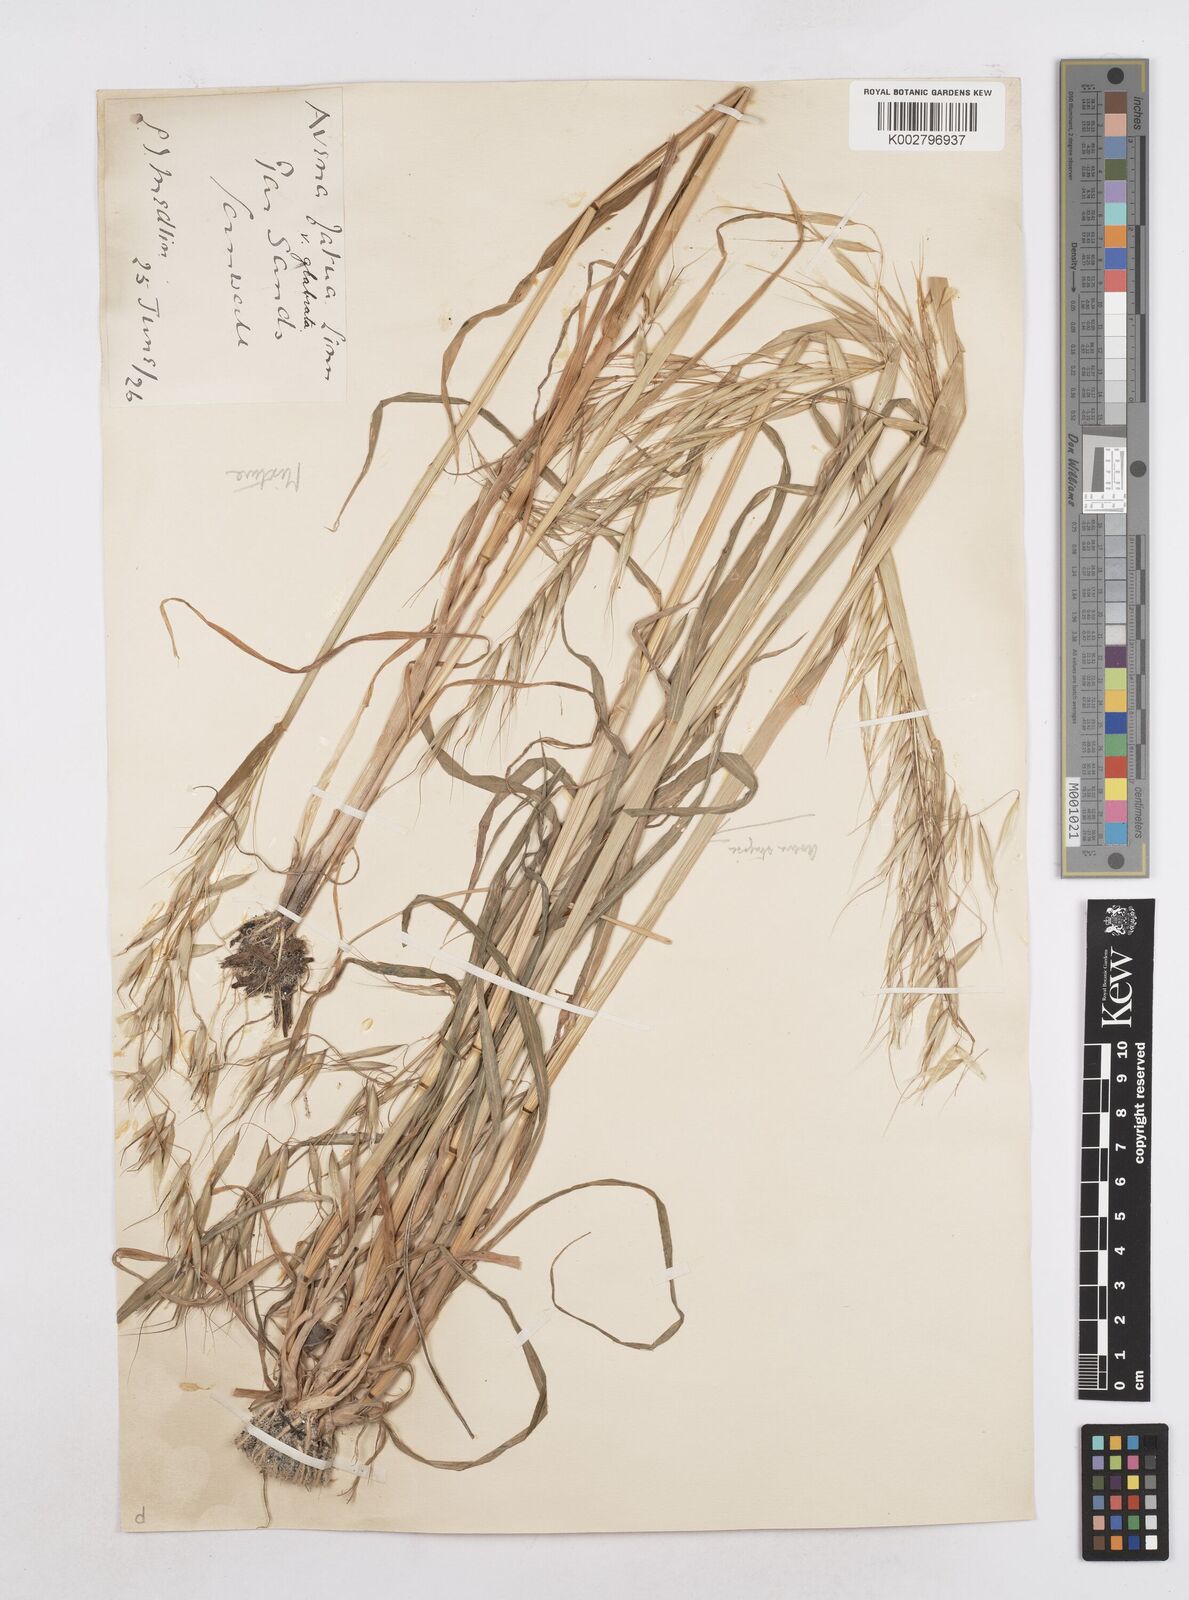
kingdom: Plantae
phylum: Tracheophyta
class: Liliopsida
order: Poales
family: Poaceae
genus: Avena
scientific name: Avena strigosa
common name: Bristle oat
